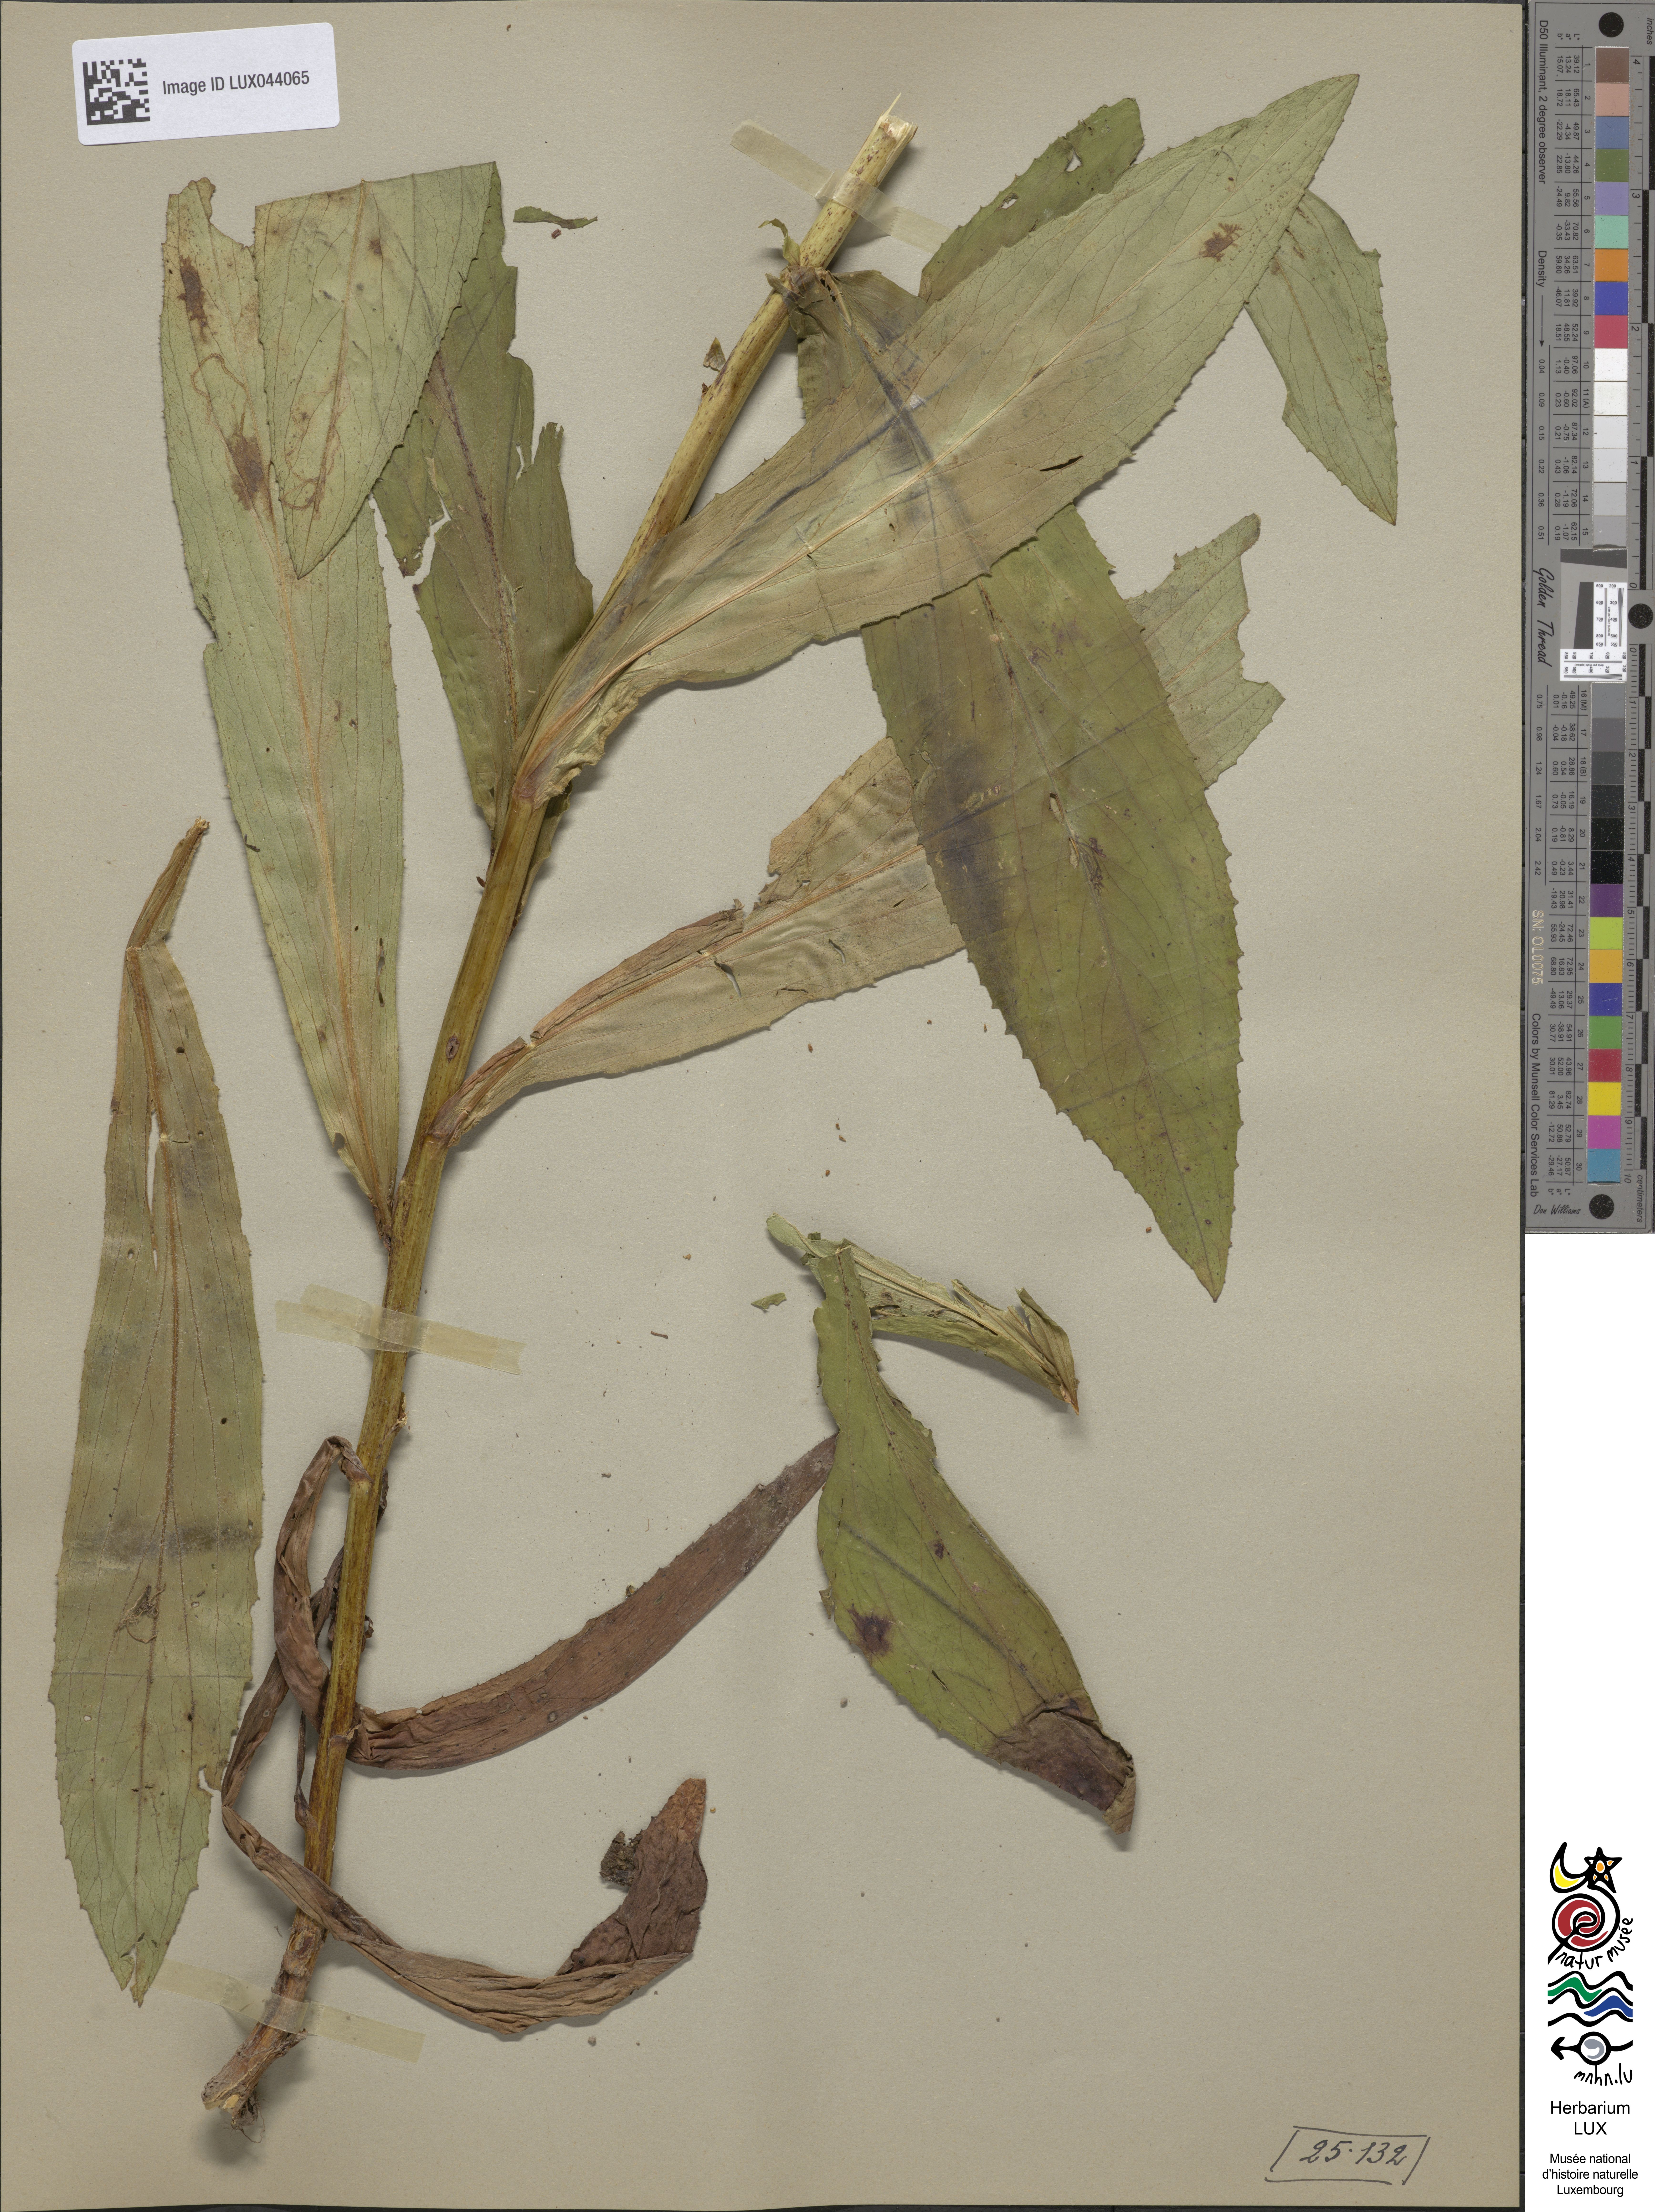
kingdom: Plantae
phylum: Tracheophyta
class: Magnoliopsida
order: Lamiales
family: Plantaginaceae
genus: Digitalis
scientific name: Digitalis lutea
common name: Straw foxglove
